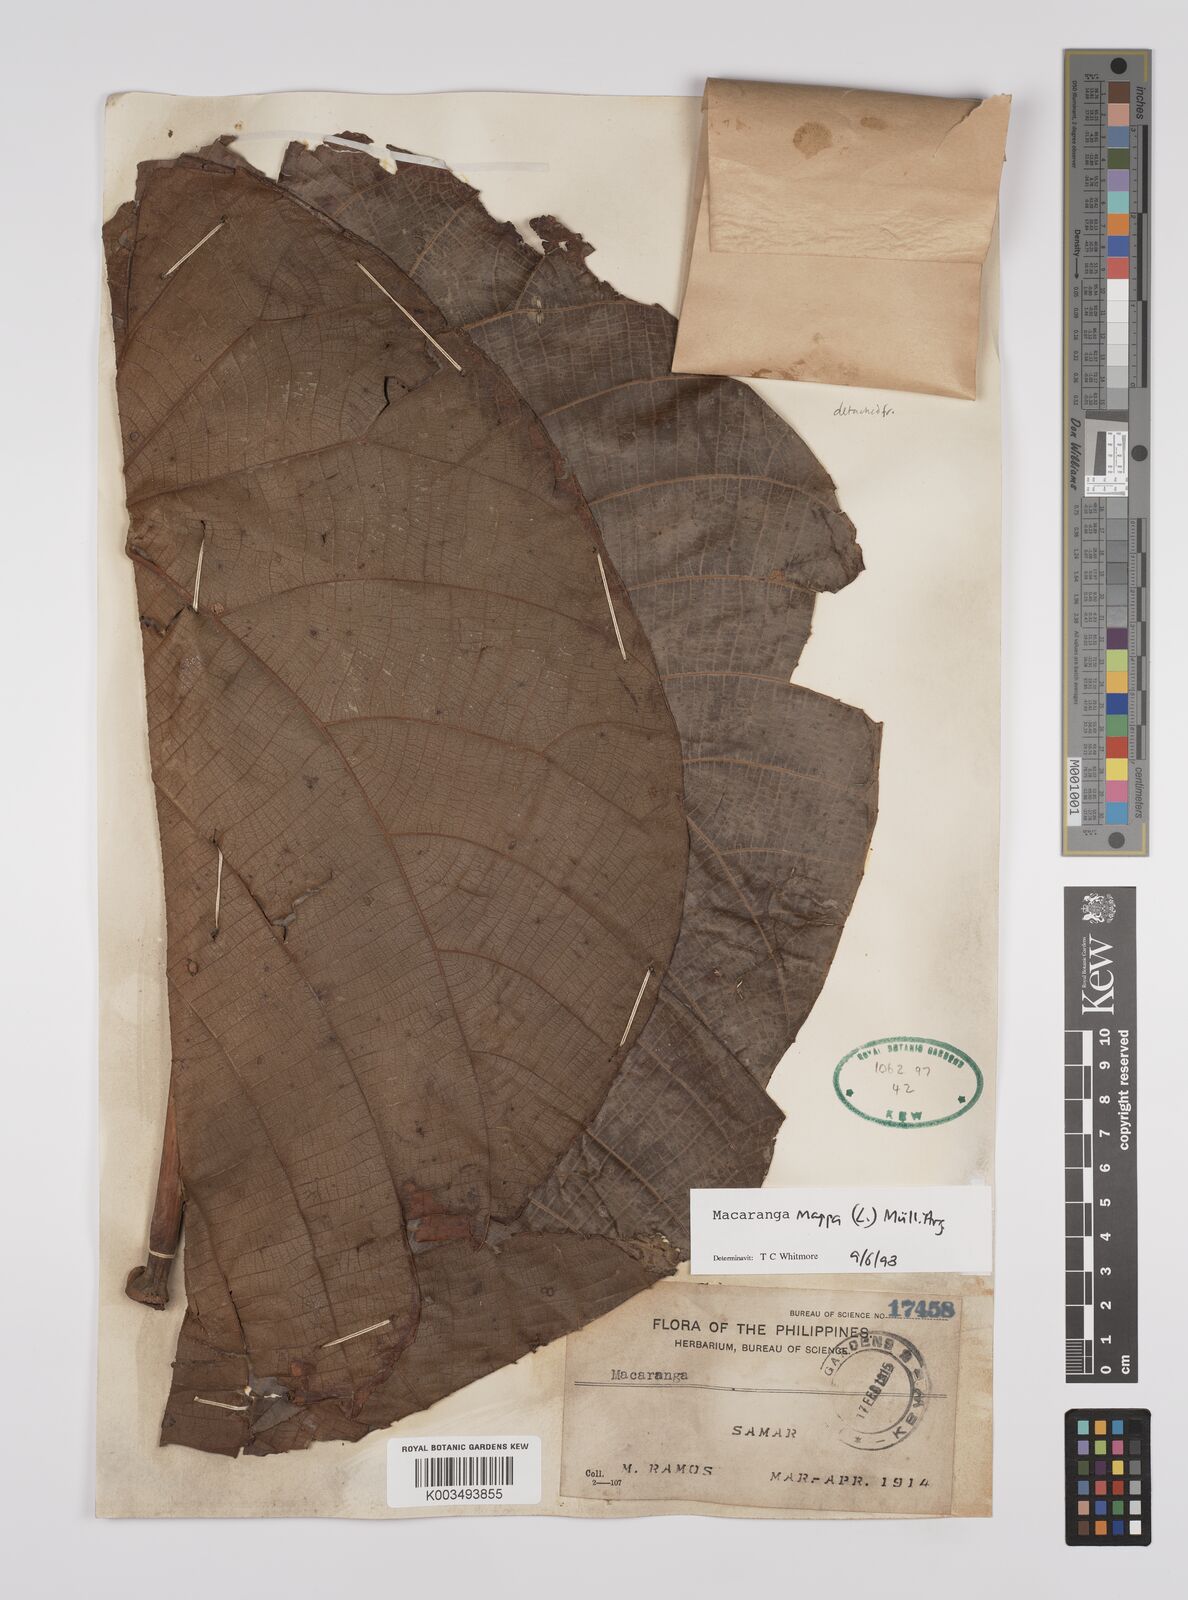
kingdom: Plantae
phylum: Tracheophyta
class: Magnoliopsida
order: Malpighiales
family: Euphorbiaceae
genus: Macaranga
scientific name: Macaranga grandifolia
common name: Coraltree
